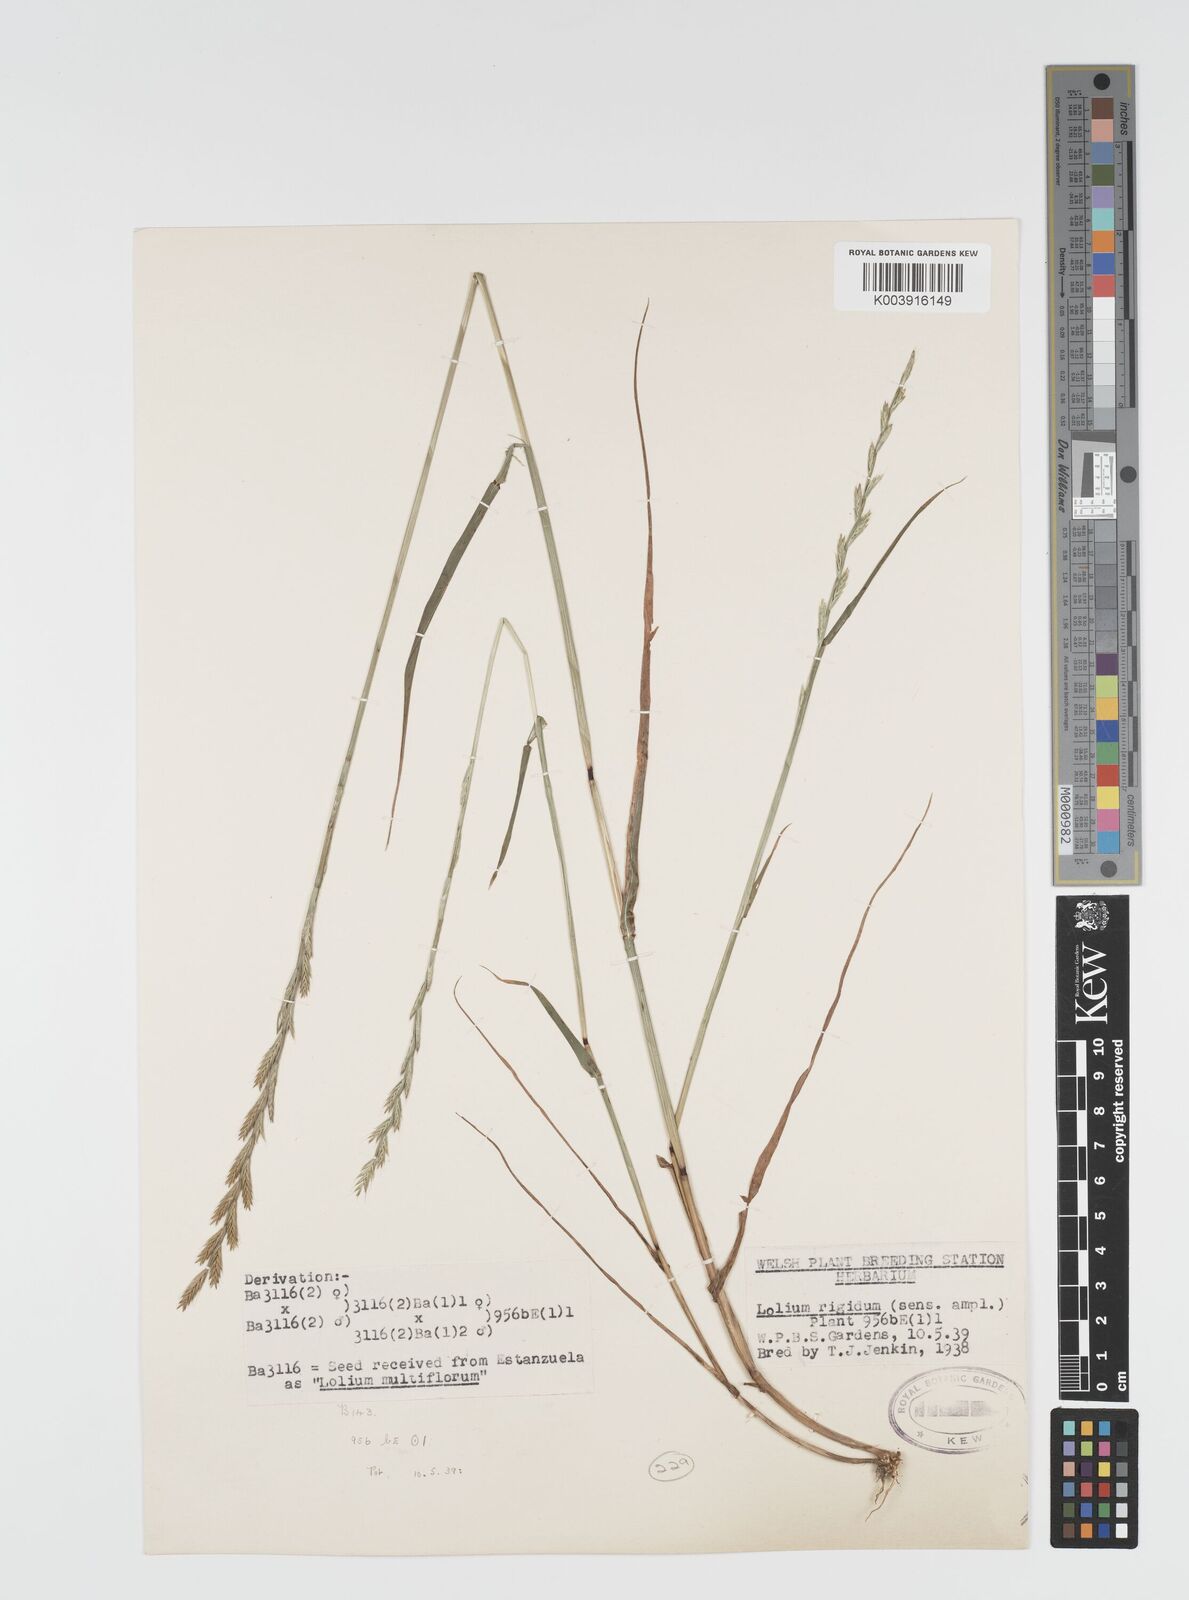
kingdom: Plantae
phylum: Tracheophyta
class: Liliopsida
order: Poales
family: Poaceae
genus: Lolium
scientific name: Lolium rigidum
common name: Wimmera ryegrass
